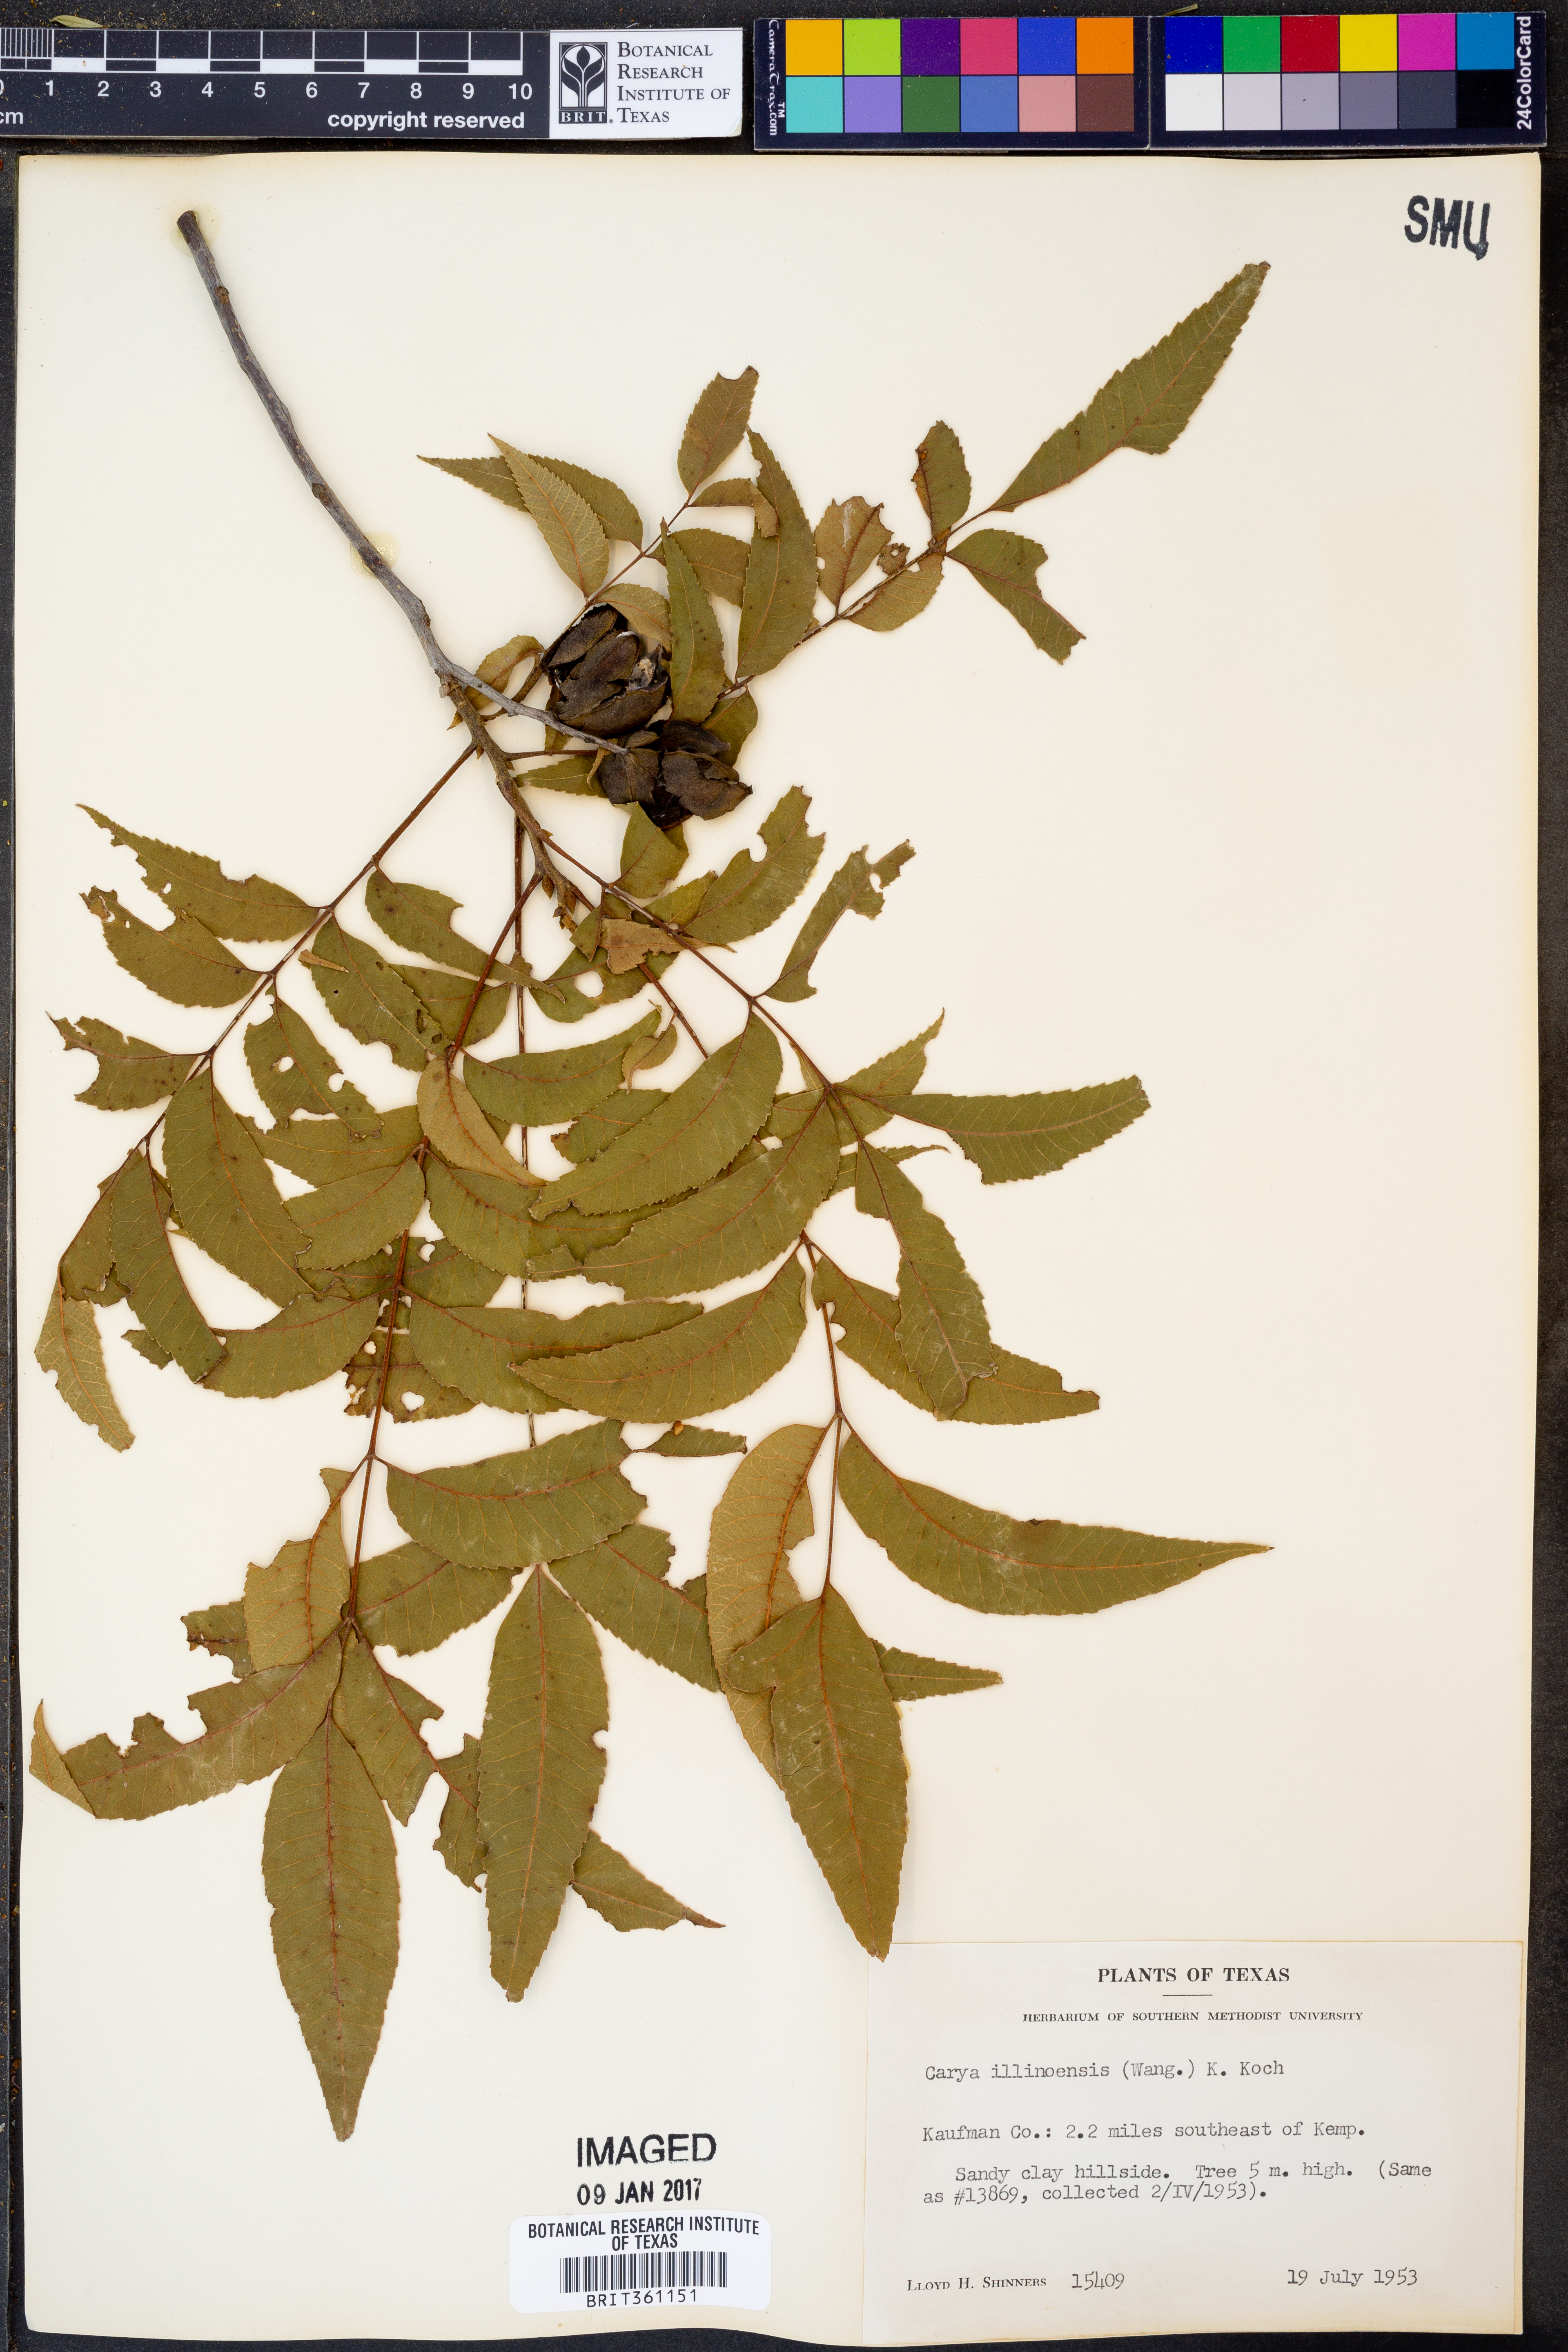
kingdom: Plantae
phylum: Tracheophyta
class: Magnoliopsida
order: Fagales
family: Juglandaceae
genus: Carya
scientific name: Carya illinoinensis
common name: Pecan
